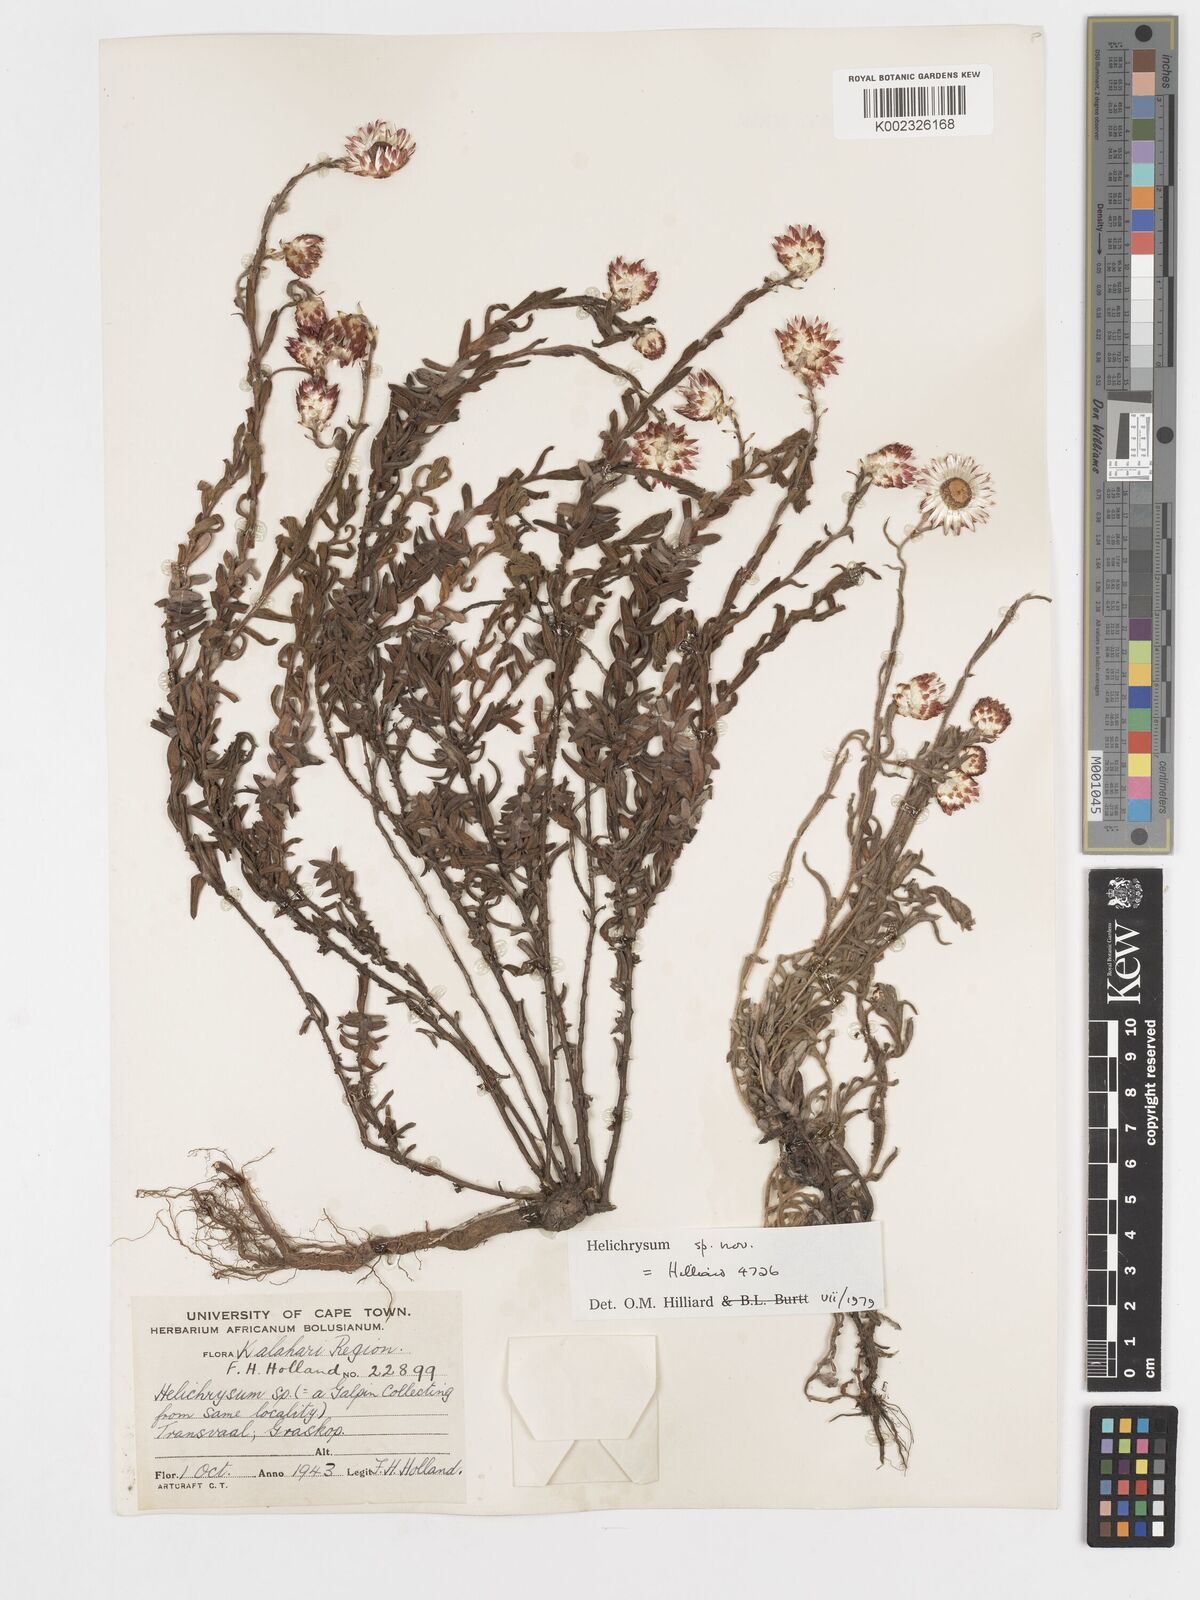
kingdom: Plantae
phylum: Tracheophyta
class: Magnoliopsida
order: Asterales
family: Asteraceae
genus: Helichrysum
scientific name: Helichrysum mariepscopicum
